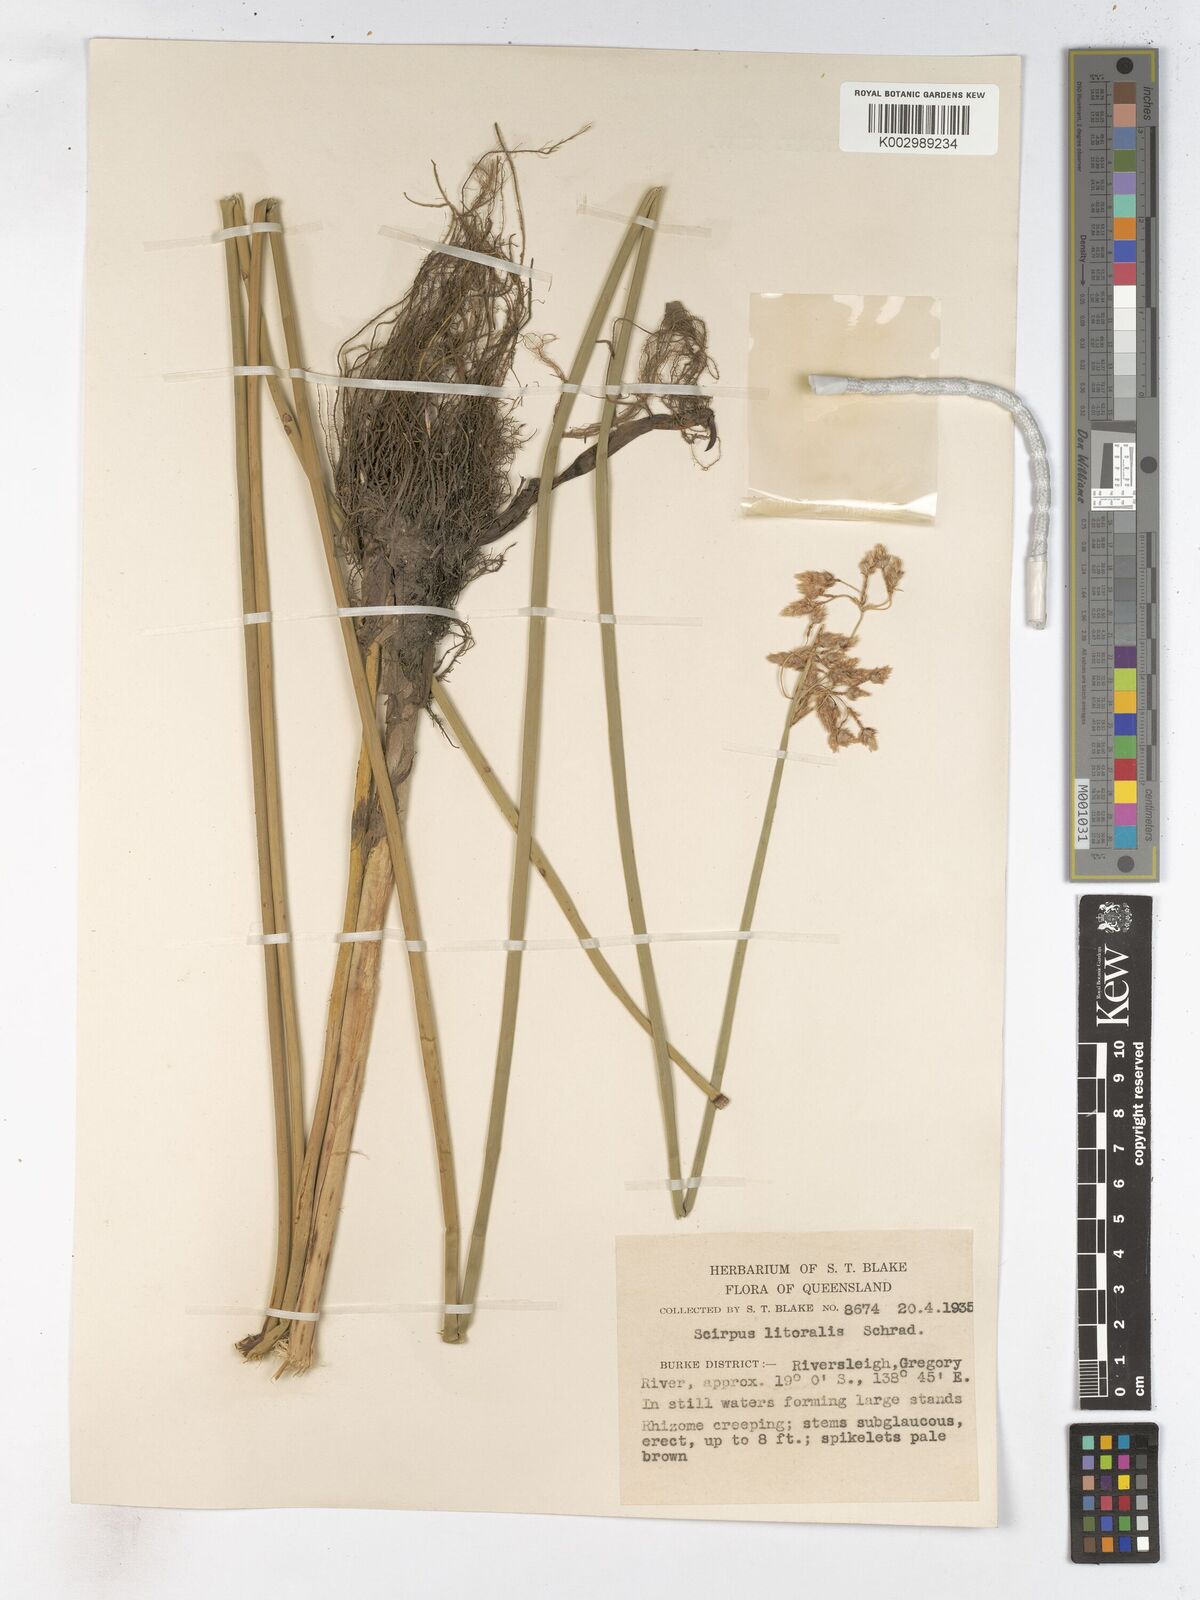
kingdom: Plantae
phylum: Tracheophyta
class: Liliopsida
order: Poales
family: Cyperaceae
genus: Schoenoplectus
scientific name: Schoenoplectus litoralis
